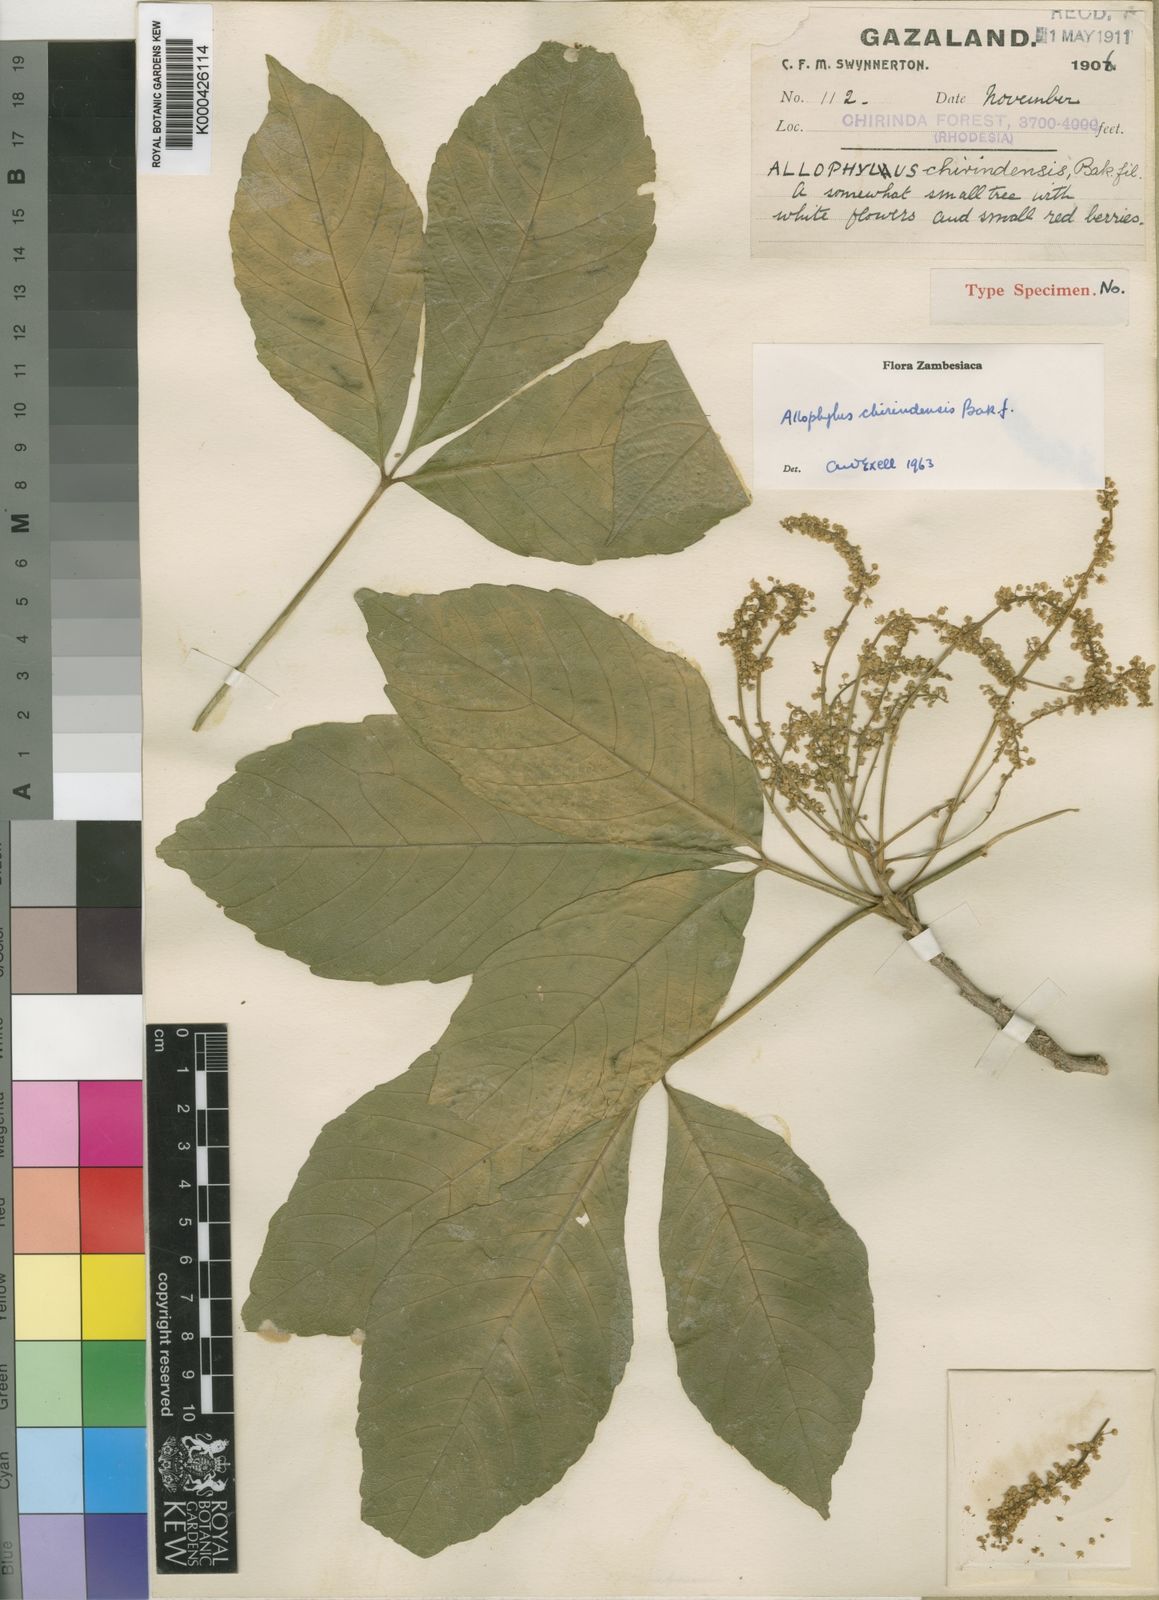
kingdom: Plantae
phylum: Tracheophyta
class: Magnoliopsida
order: Sapindales
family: Sapindaceae
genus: Allophylus
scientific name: Allophylus chirindensis
